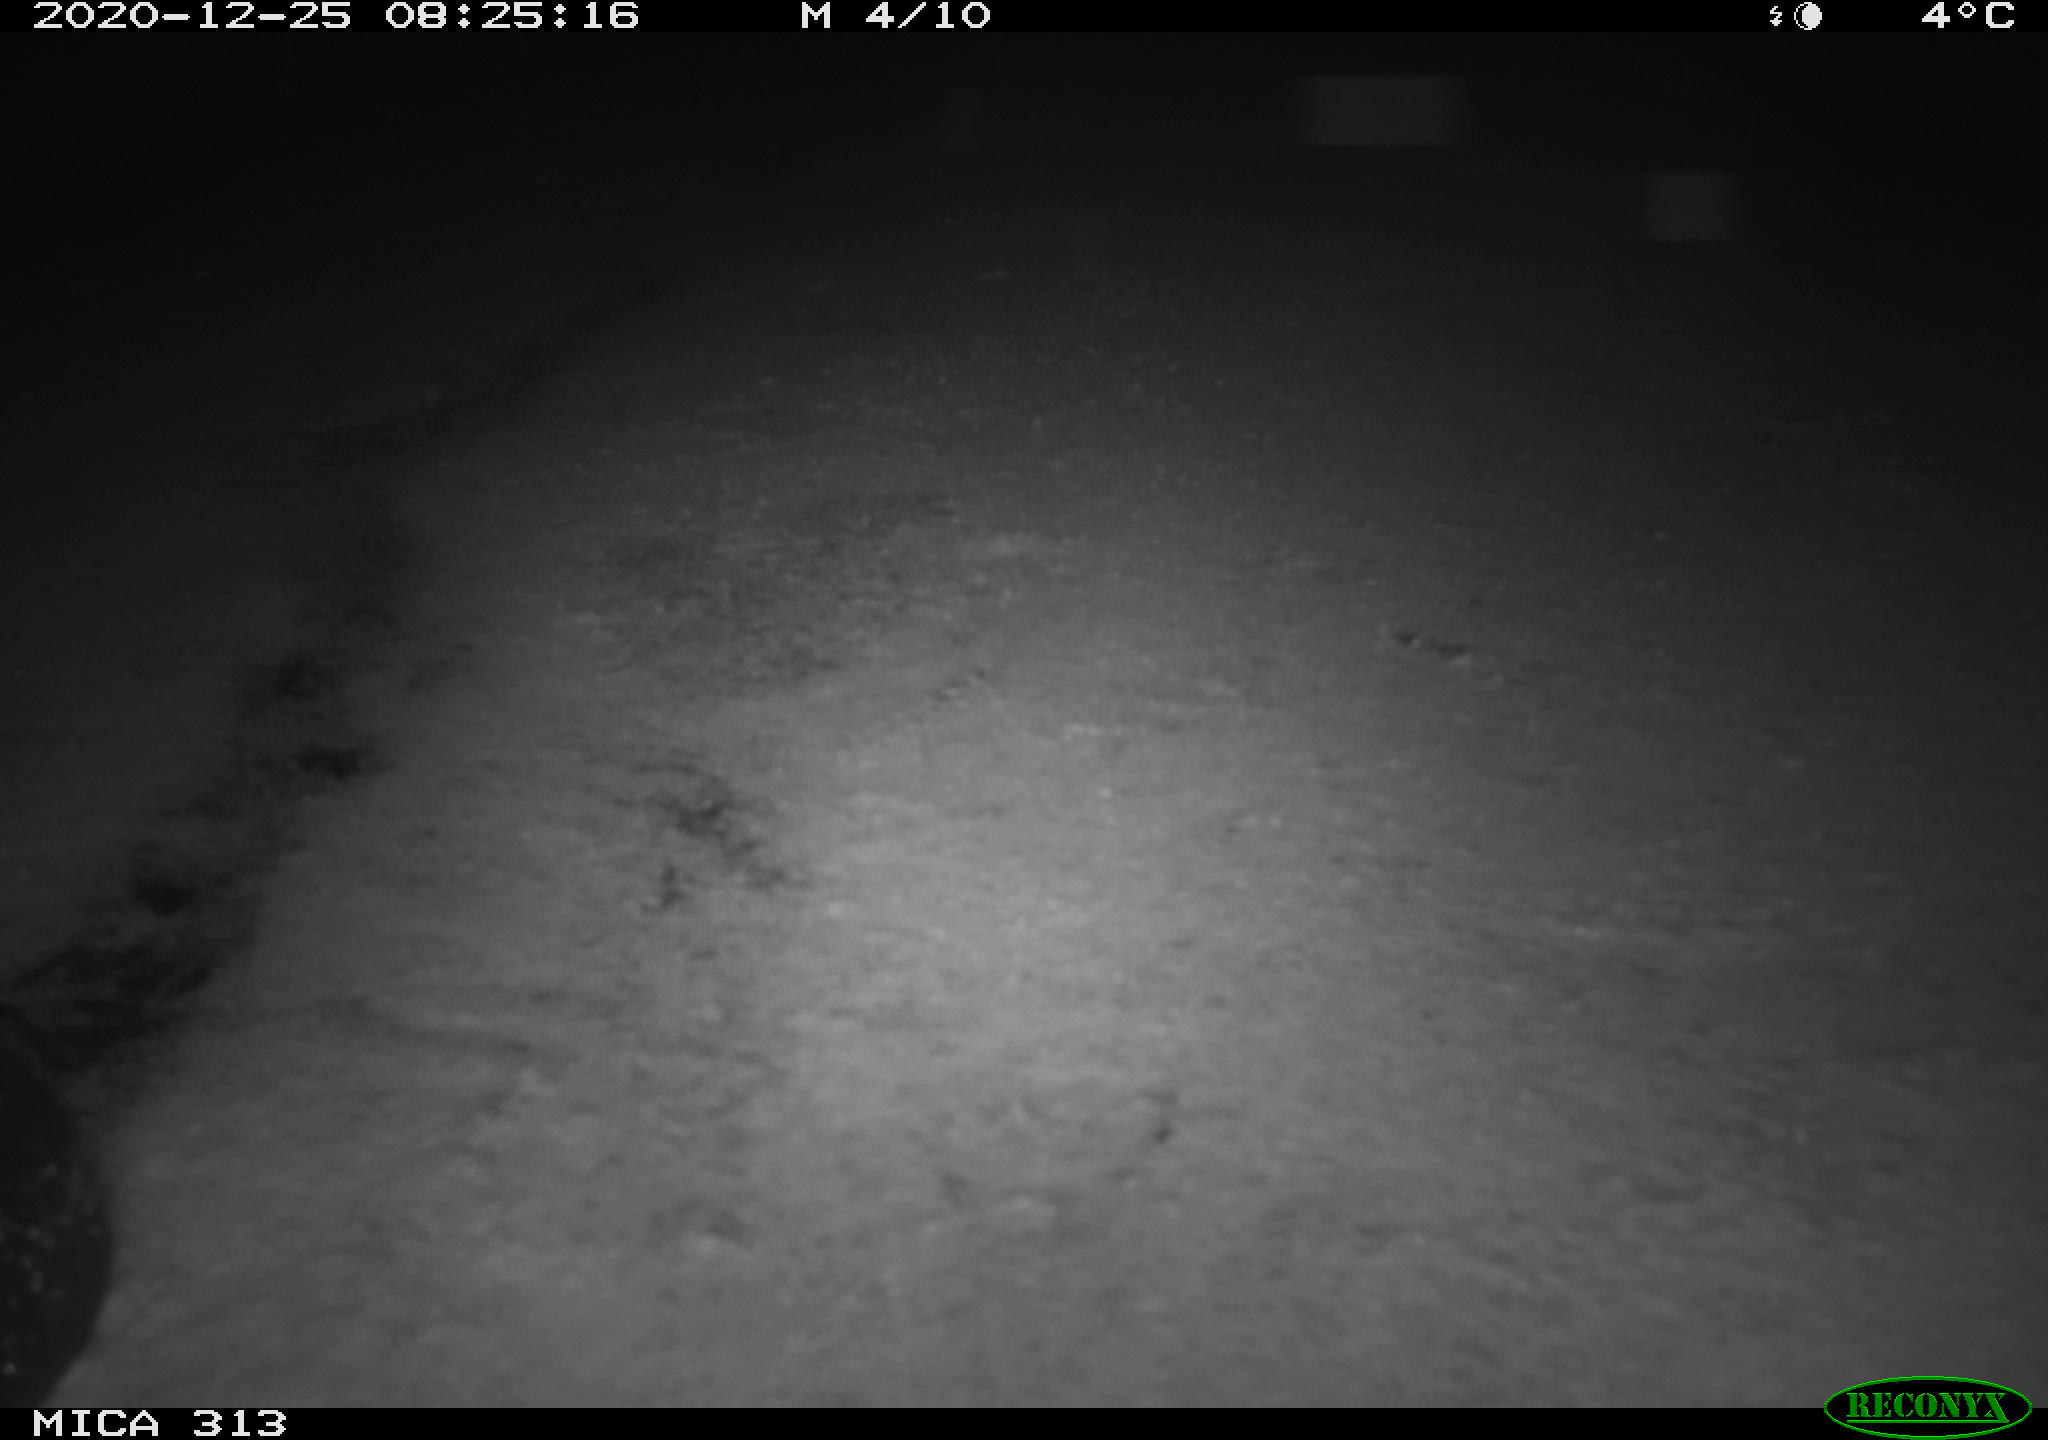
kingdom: Animalia
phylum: Chordata
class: Aves
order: Gruiformes
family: Rallidae
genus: Fulica
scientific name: Fulica atra
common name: Eurasian coot
